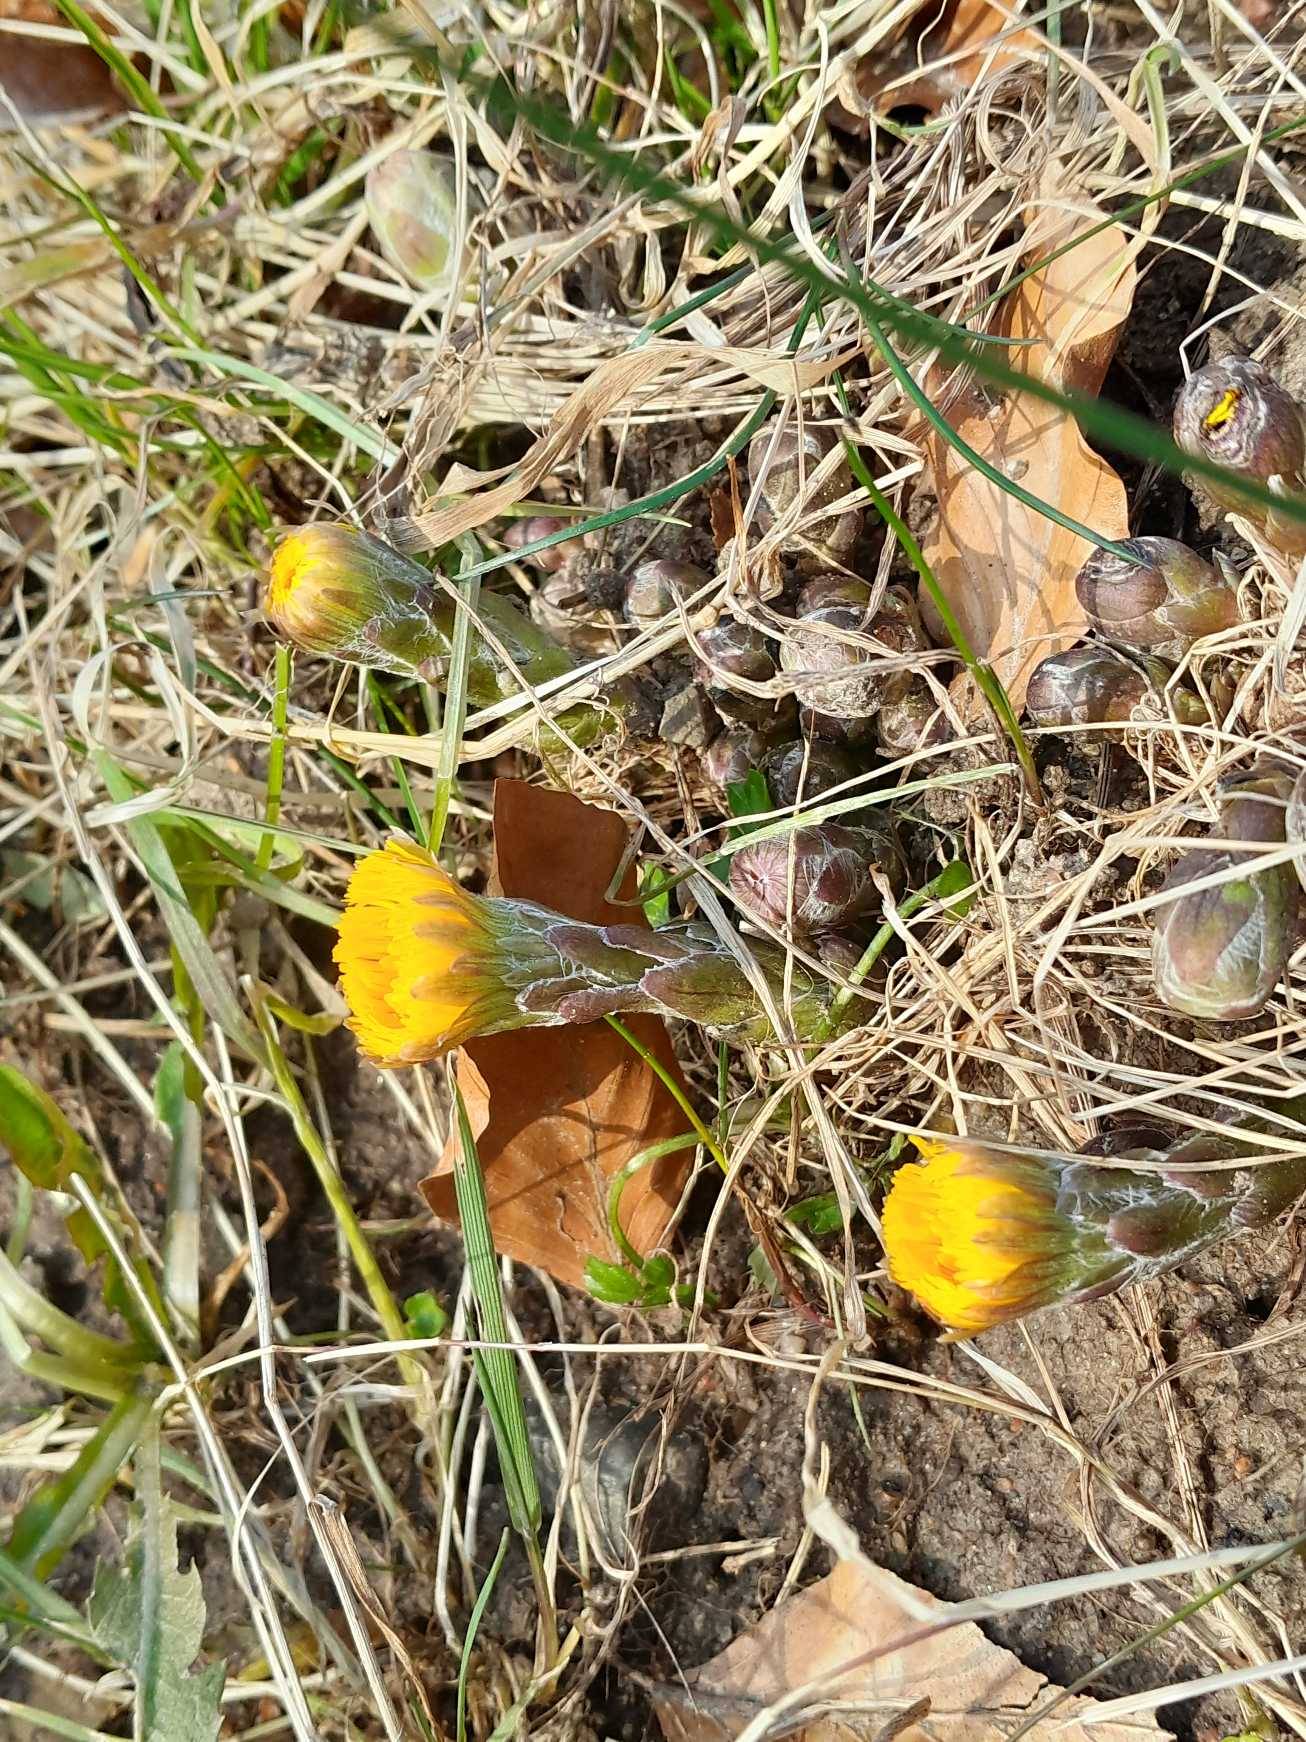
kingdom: Plantae
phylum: Tracheophyta
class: Magnoliopsida
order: Asterales
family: Asteraceae
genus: Tussilago
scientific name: Tussilago farfara
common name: Følfod
